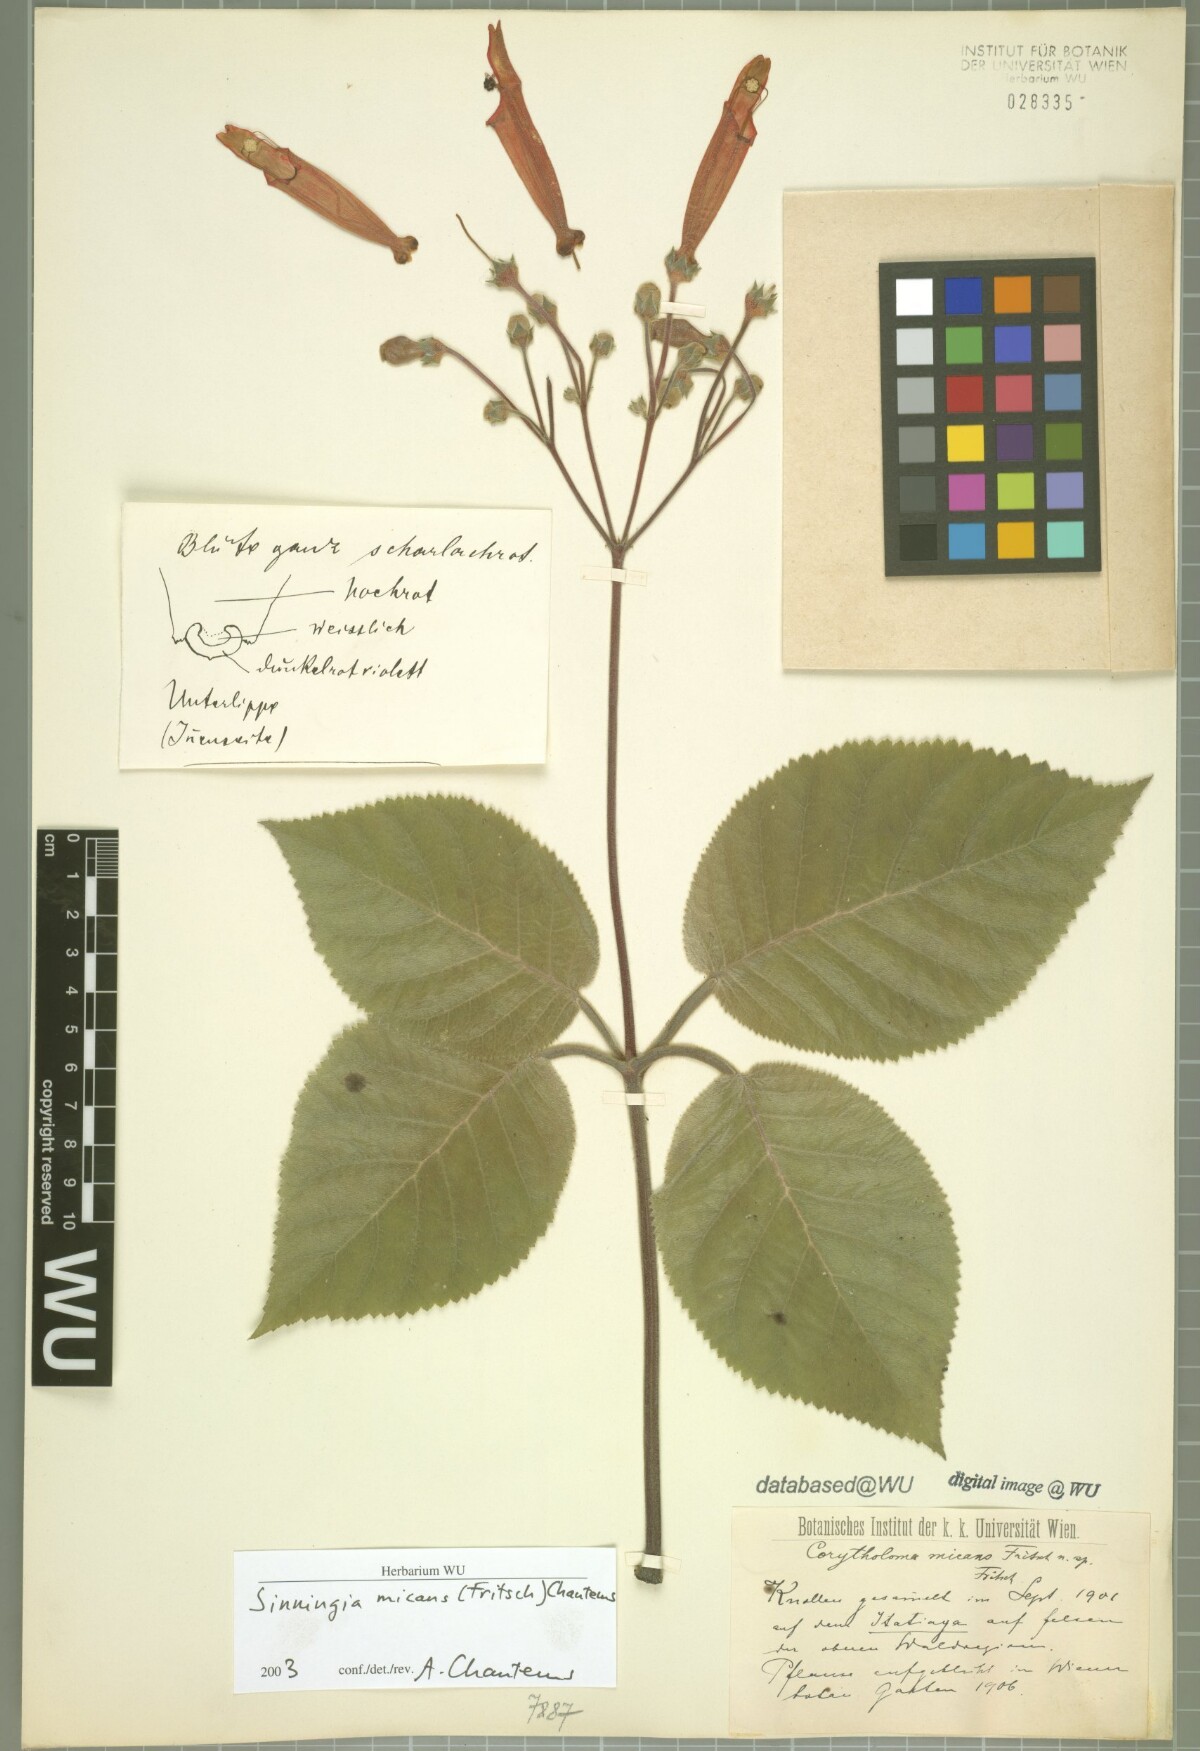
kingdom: Plantae
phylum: Tracheophyta
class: Magnoliopsida
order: Lamiales
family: Gesneriaceae
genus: Sinningia
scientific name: Sinningia micans
